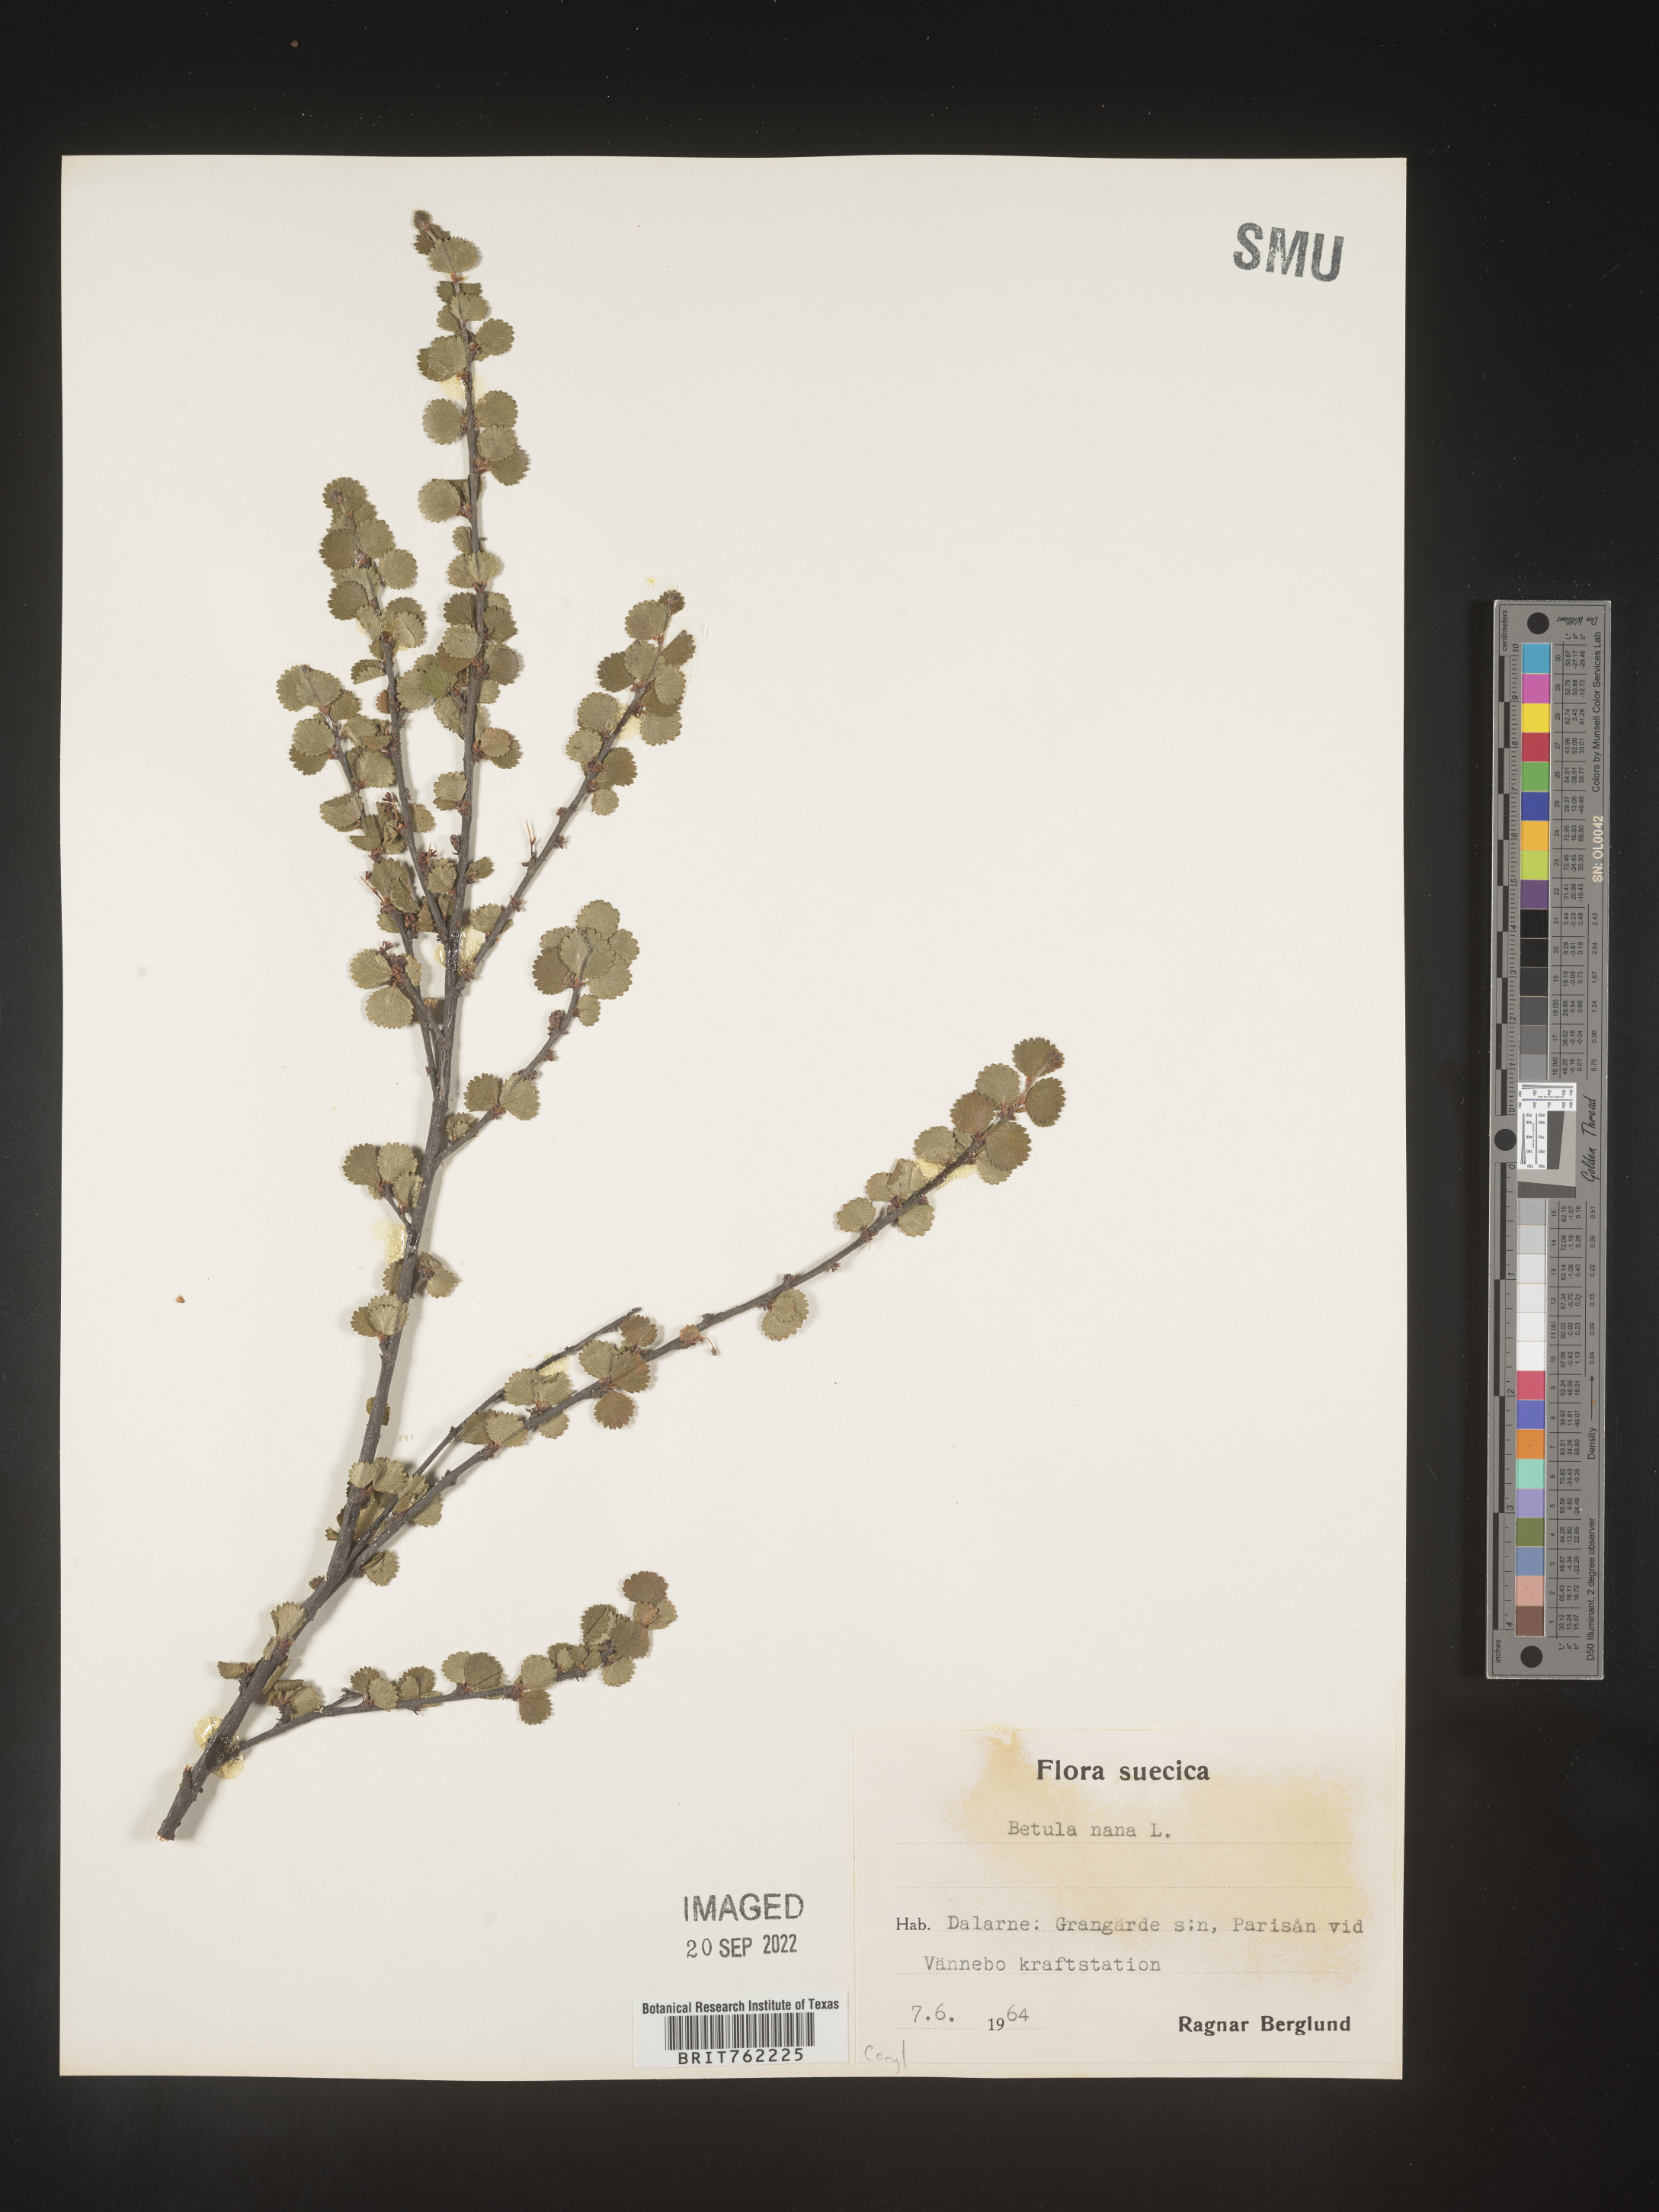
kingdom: Plantae
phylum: Tracheophyta
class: Magnoliopsida
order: Fagales
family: Betulaceae
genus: Betula
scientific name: Betula
